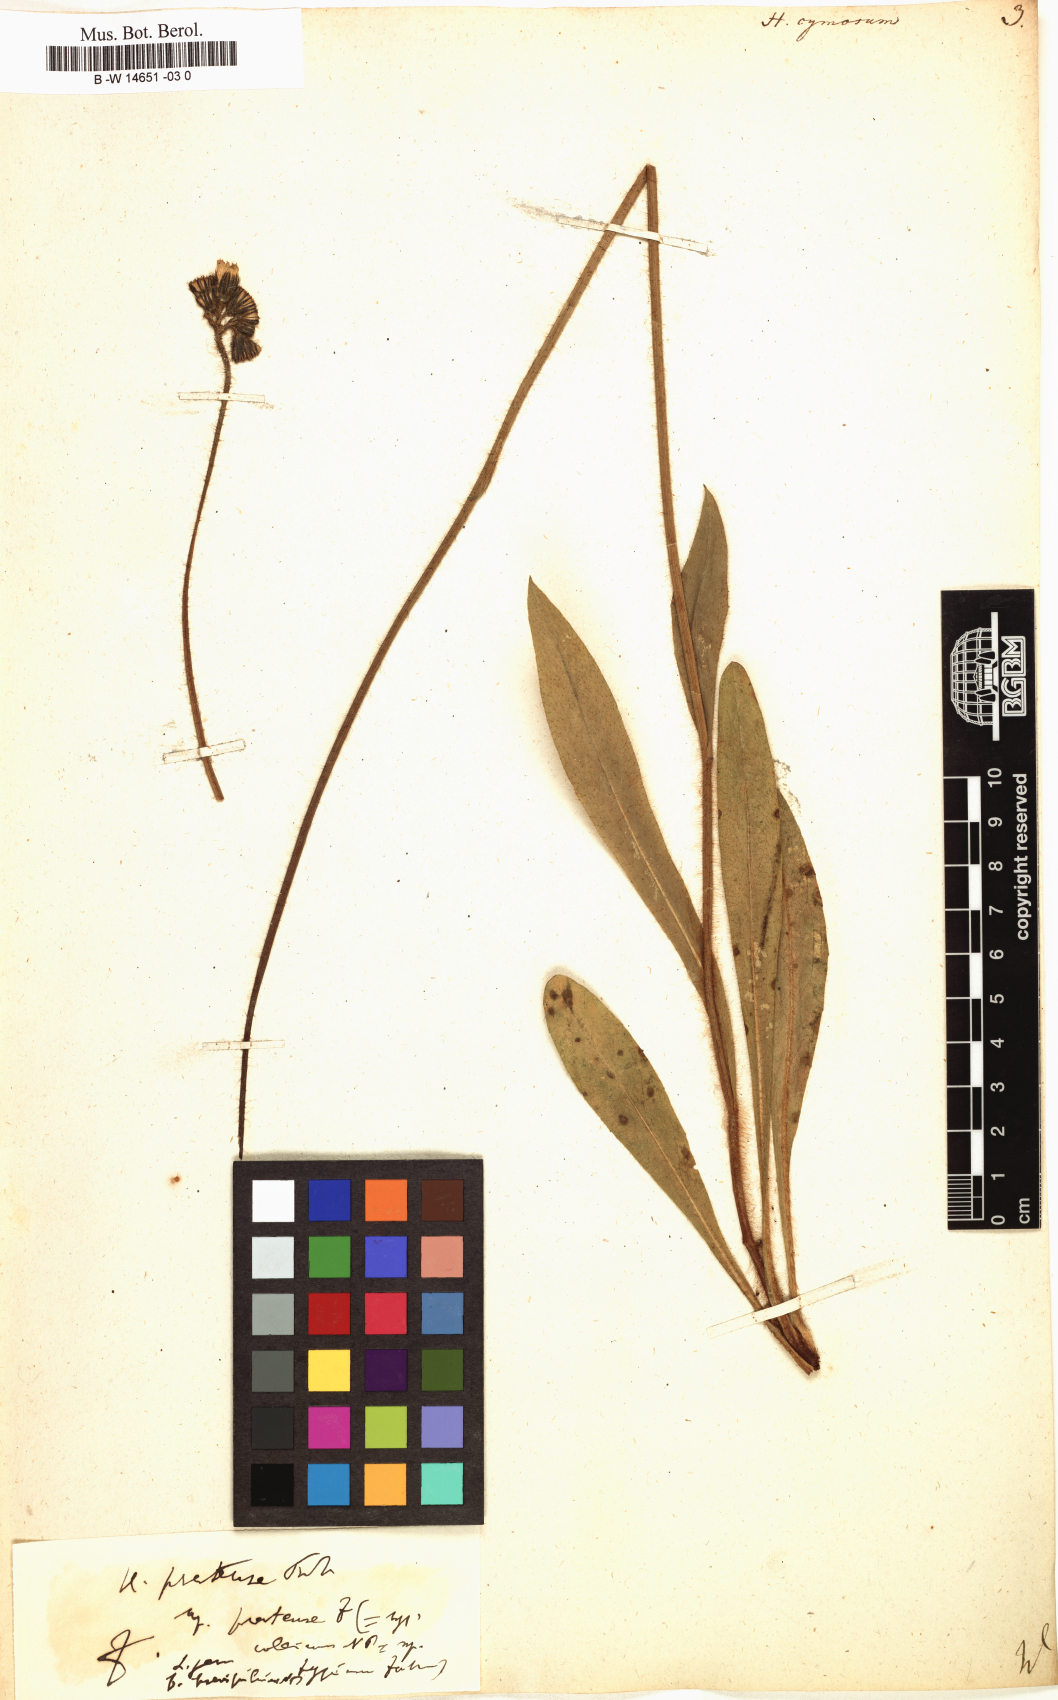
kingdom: Plantae
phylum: Tracheophyta
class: Magnoliopsida
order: Asterales
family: Asteraceae
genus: Hieracium
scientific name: Hieracium cymosum
